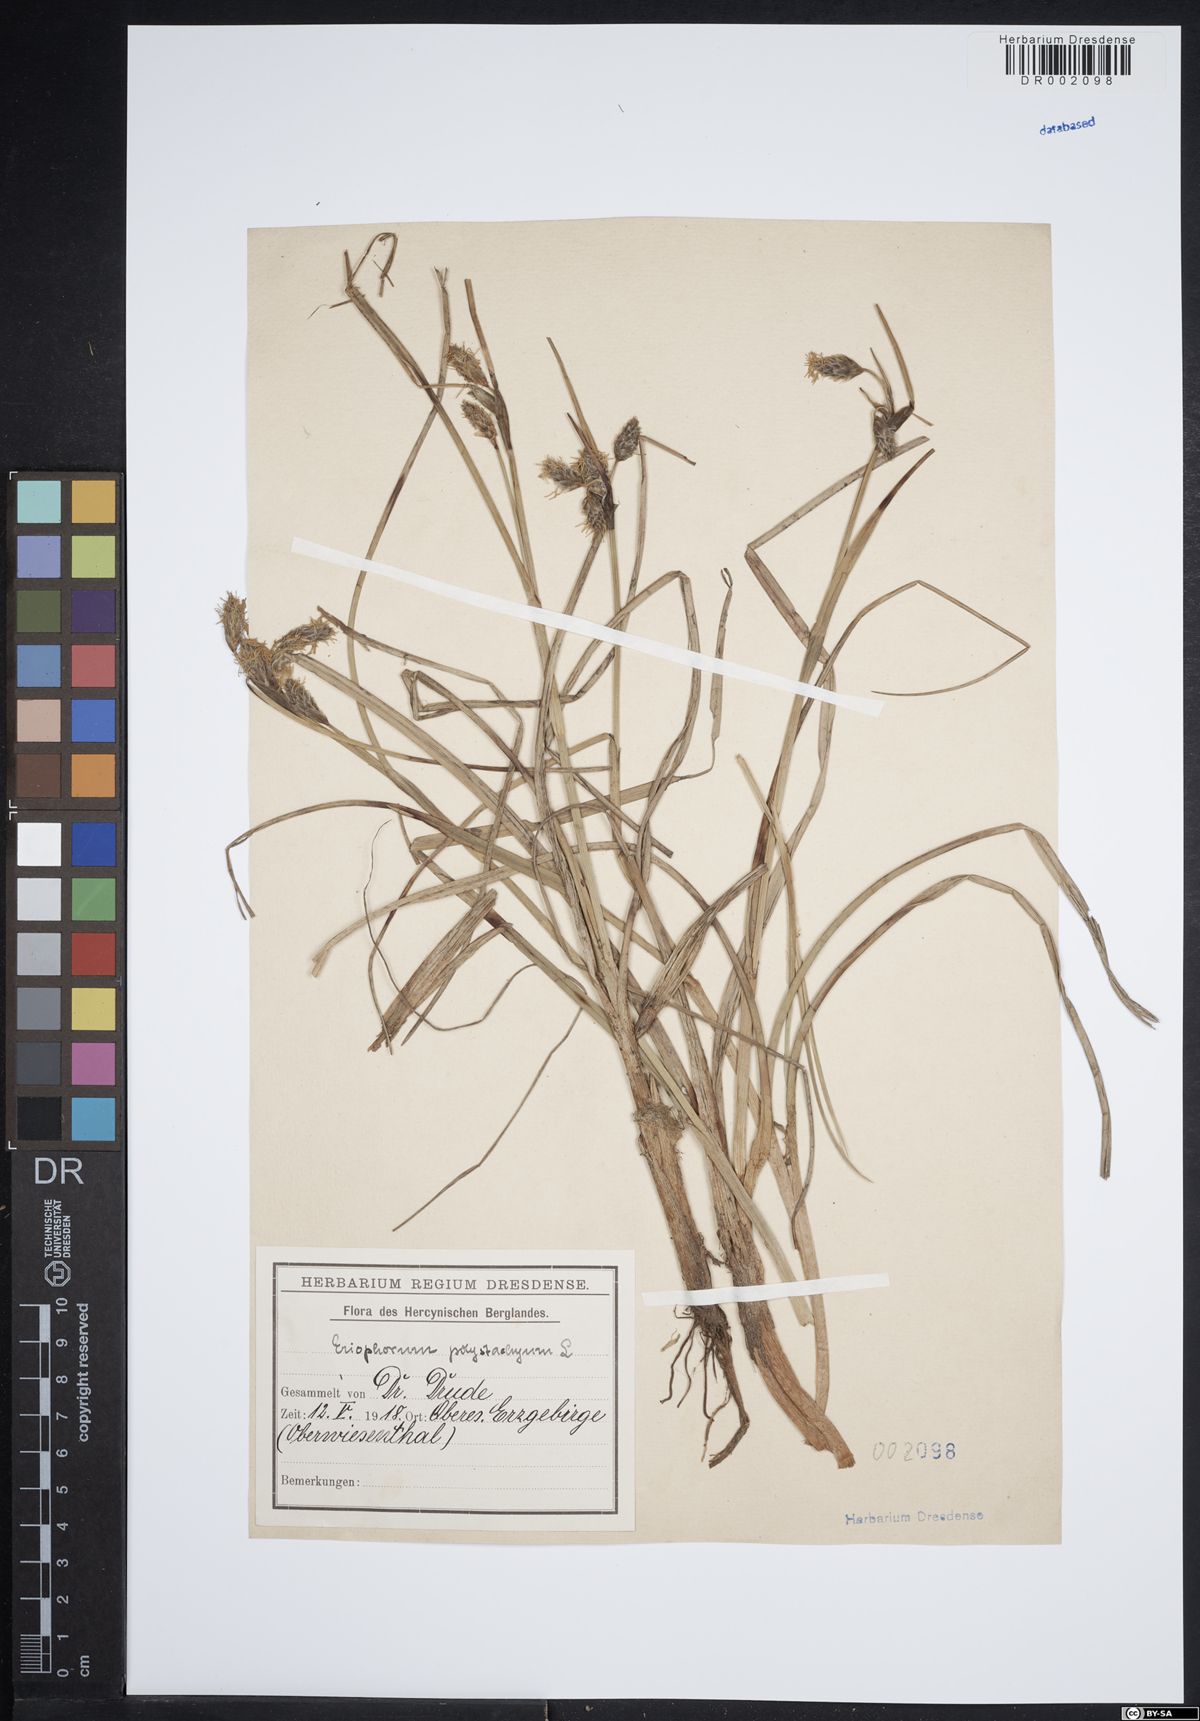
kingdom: Plantae
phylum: Tracheophyta
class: Liliopsida
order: Poales
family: Cyperaceae
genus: Eriophorum
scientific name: Eriophorum angustifolium
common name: Common cottongrass
